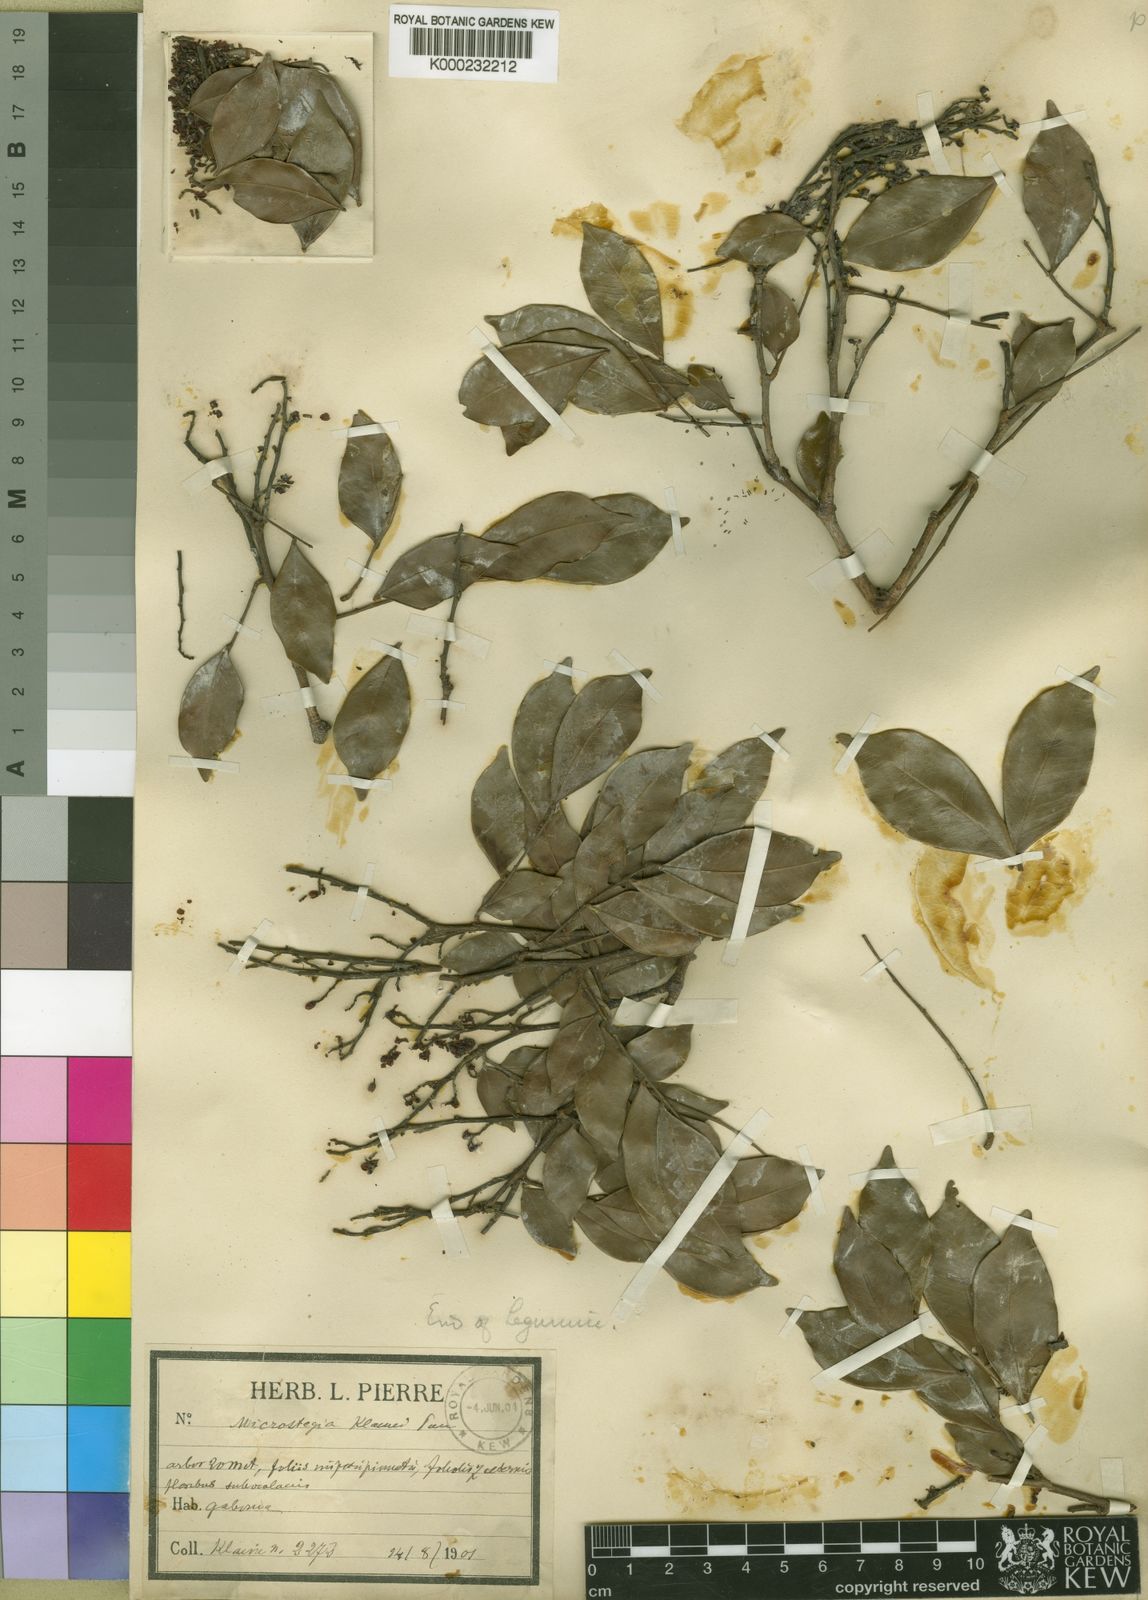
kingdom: Plantae
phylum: Tracheophyta
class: Magnoliopsida
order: Fabales
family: Fabaceae
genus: Gilletiodendron
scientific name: Gilletiodendron
